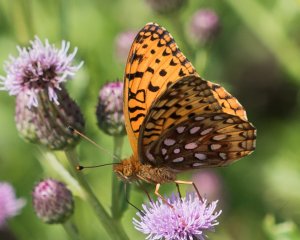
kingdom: Animalia
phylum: Arthropoda
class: Insecta
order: Lepidoptera
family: Nymphalidae
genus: Speyeria
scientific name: Speyeria aphrodite
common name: Aphrodite Fritillary
